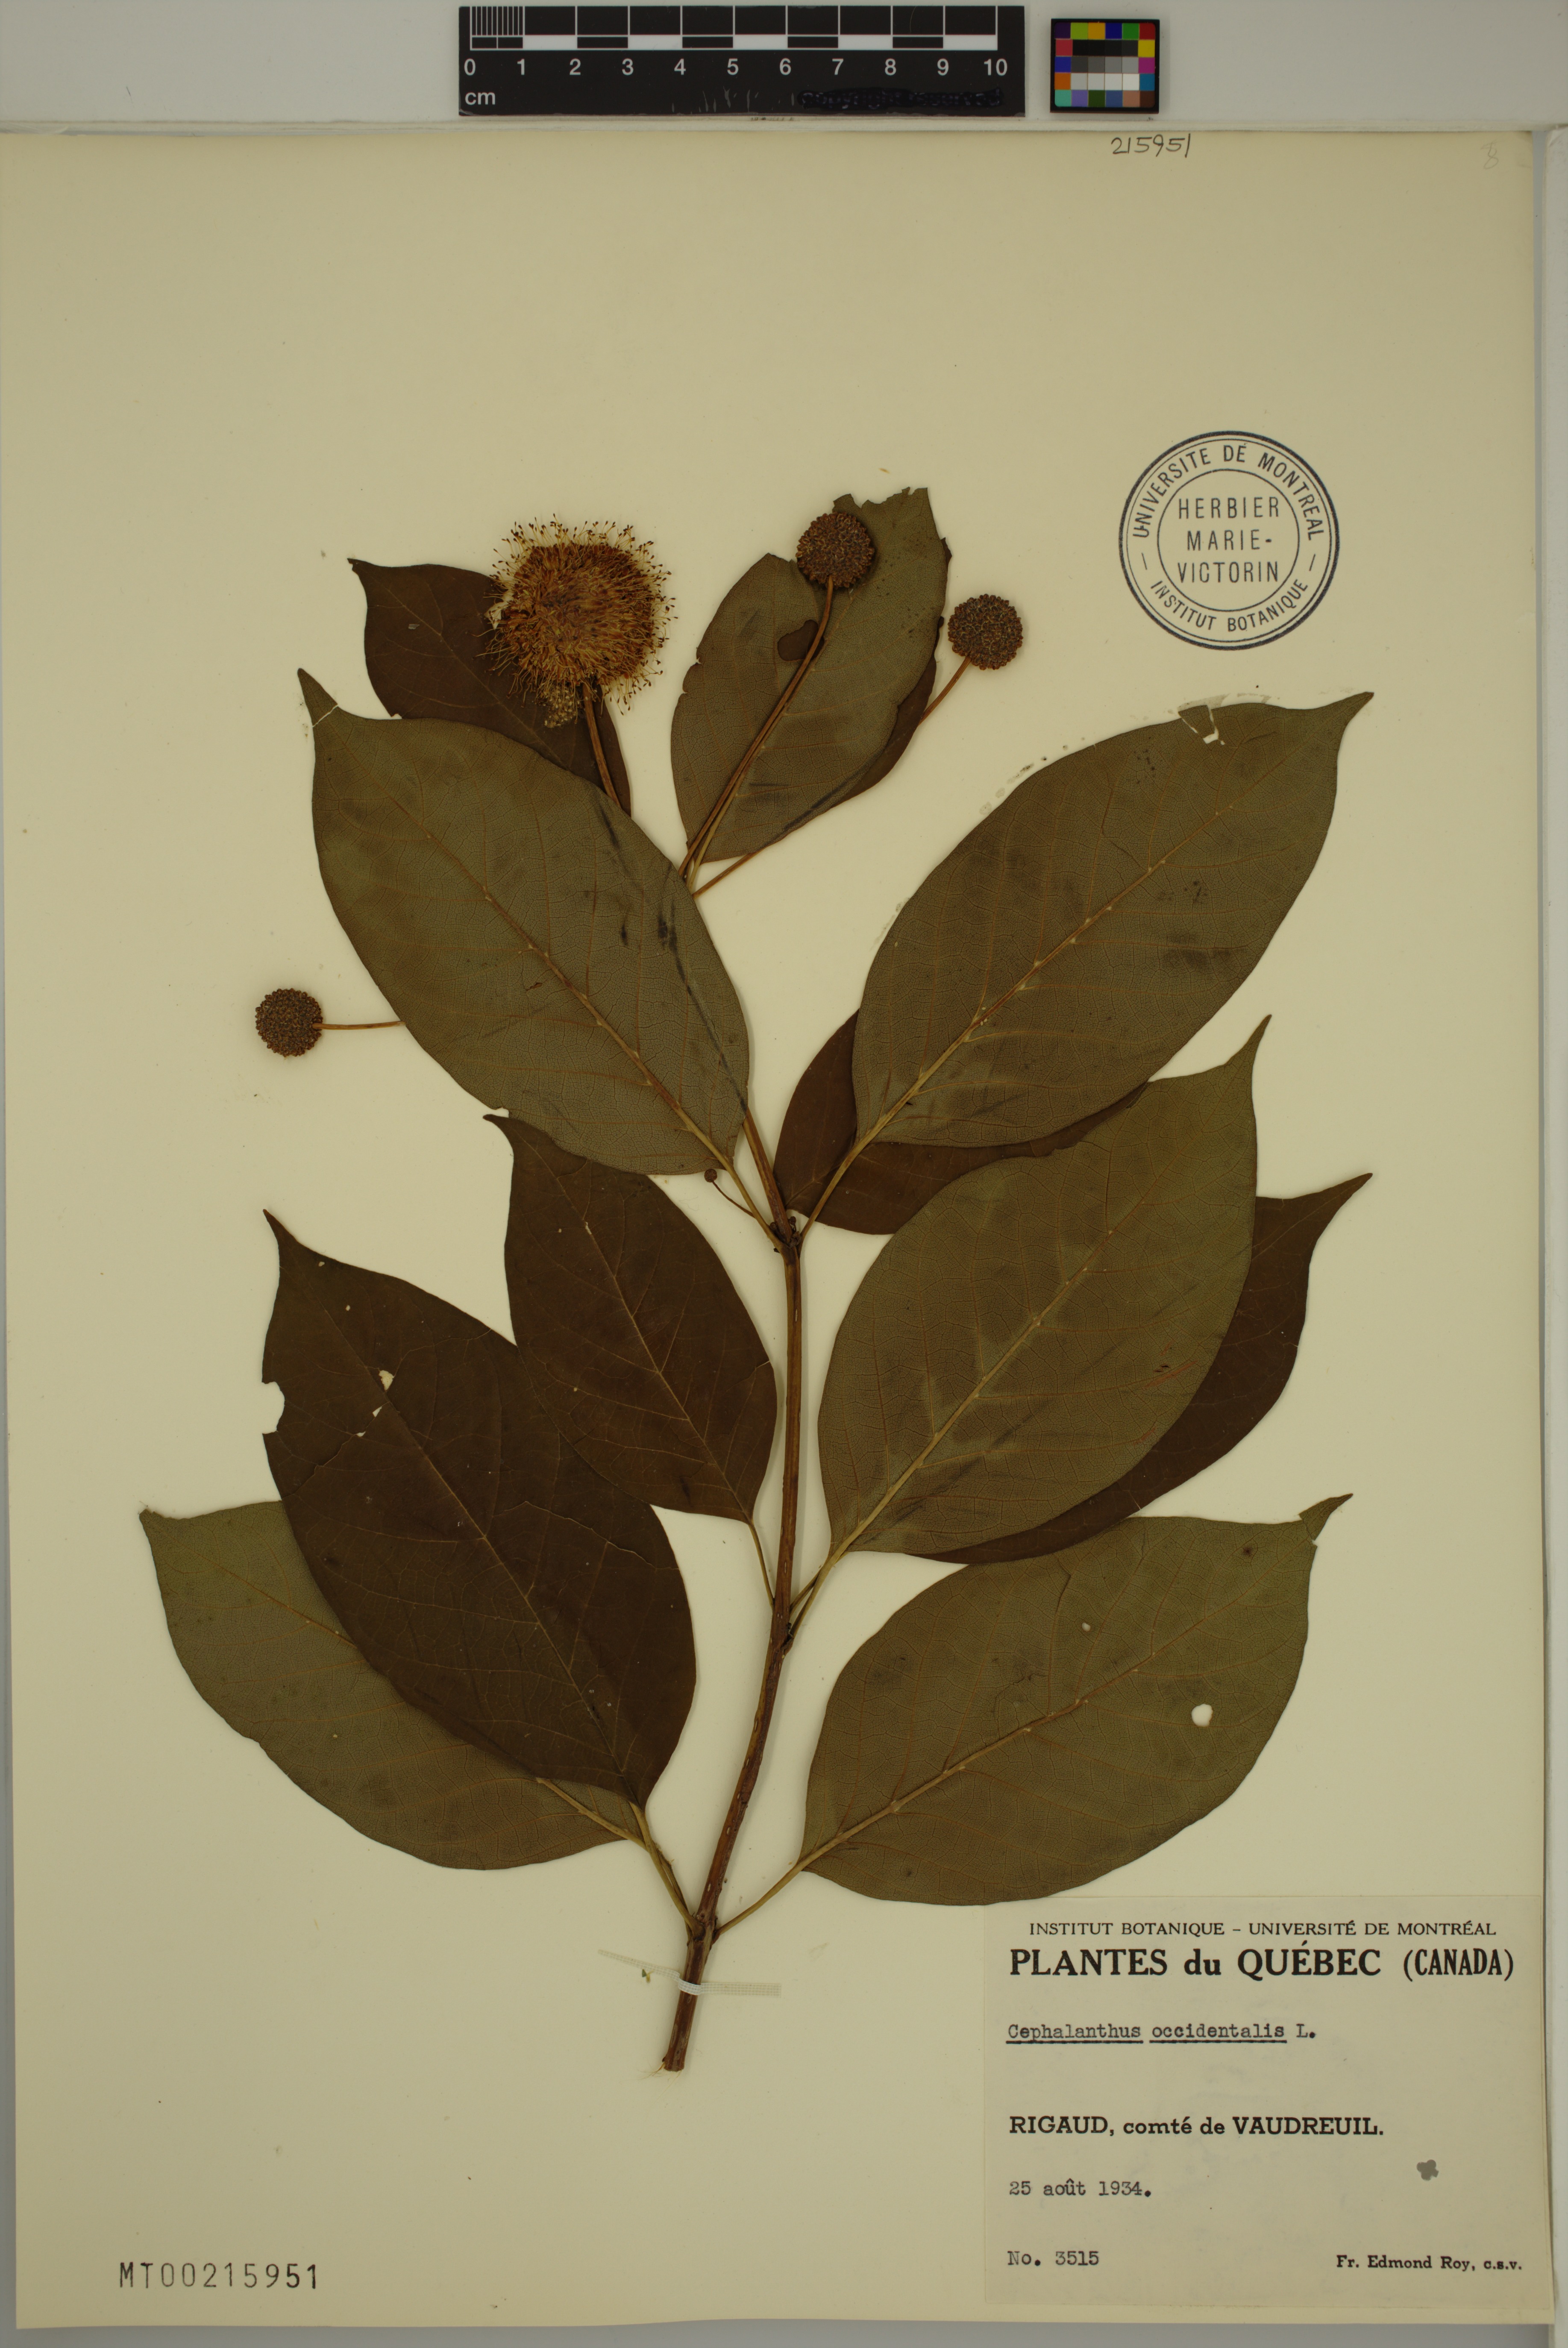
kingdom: Plantae
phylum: Tracheophyta
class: Magnoliopsida
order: Gentianales
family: Rubiaceae
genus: Cephalanthus
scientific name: Cephalanthus occidentalis
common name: Button-willow
